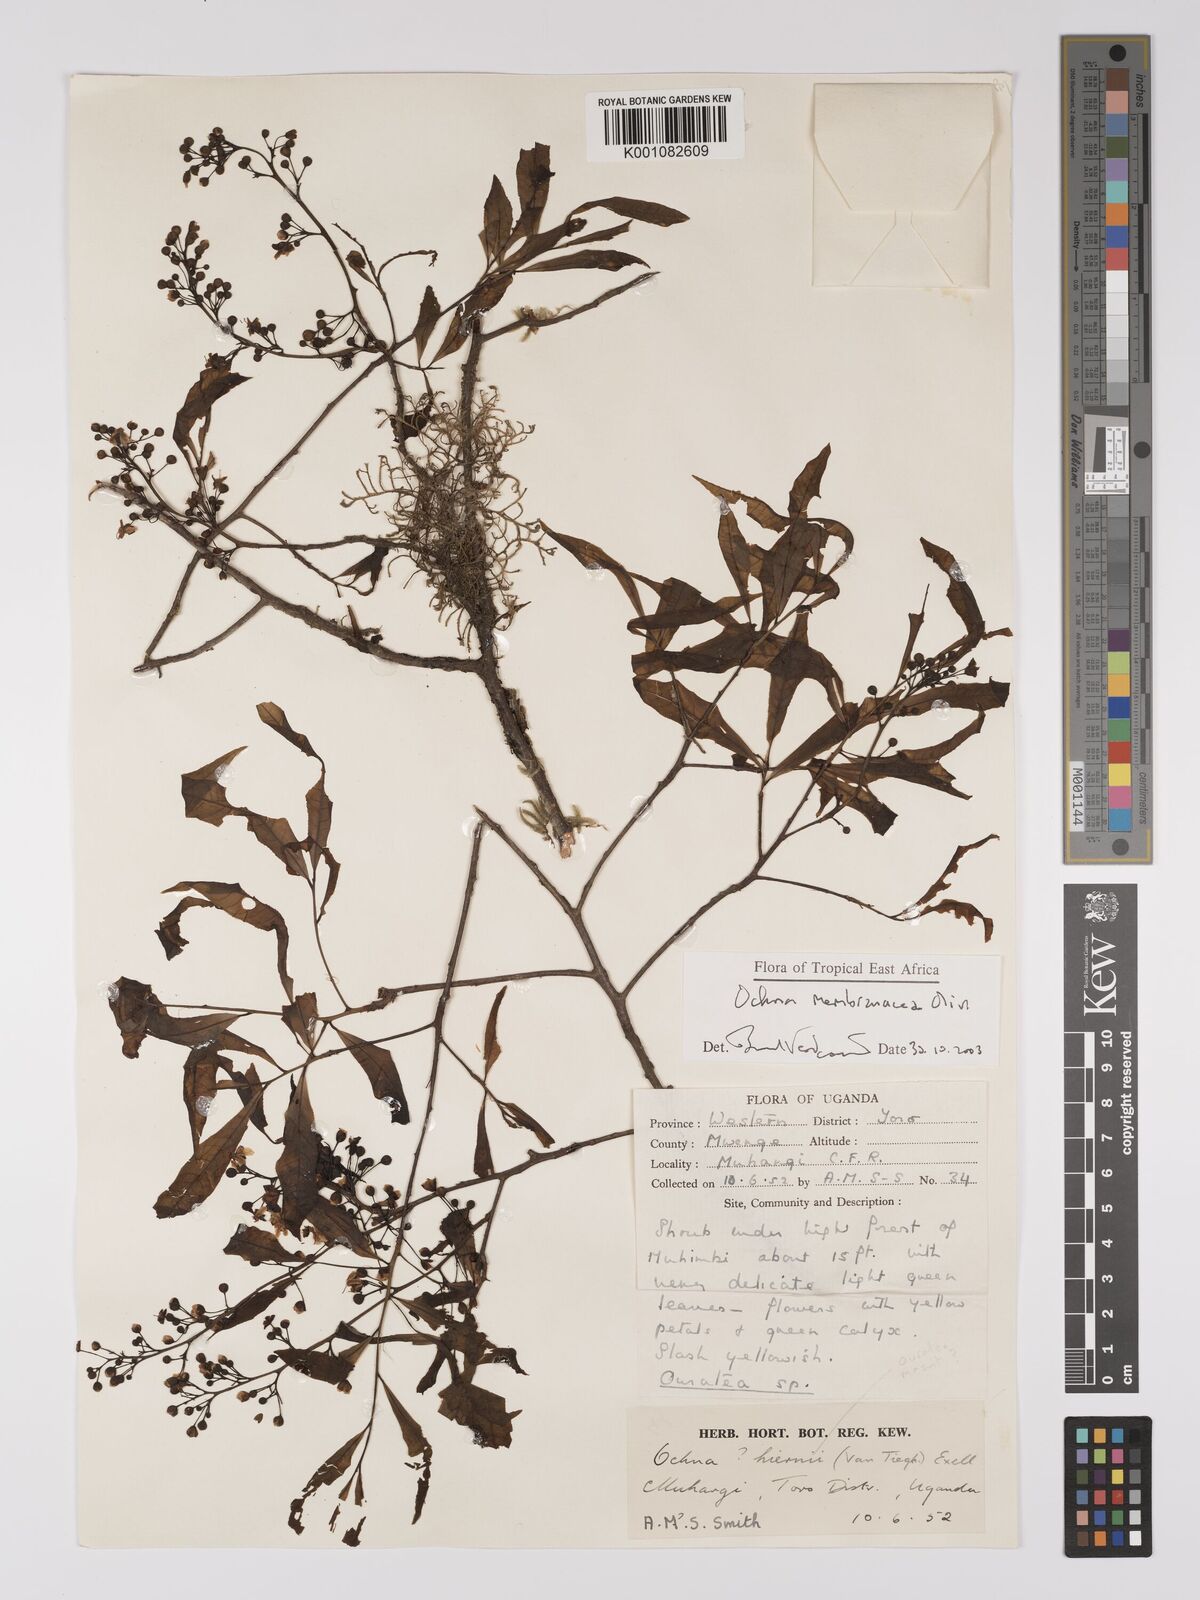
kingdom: Plantae
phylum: Tracheophyta
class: Magnoliopsida
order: Malpighiales
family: Ochnaceae
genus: Ochna
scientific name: Ochna membranacea
